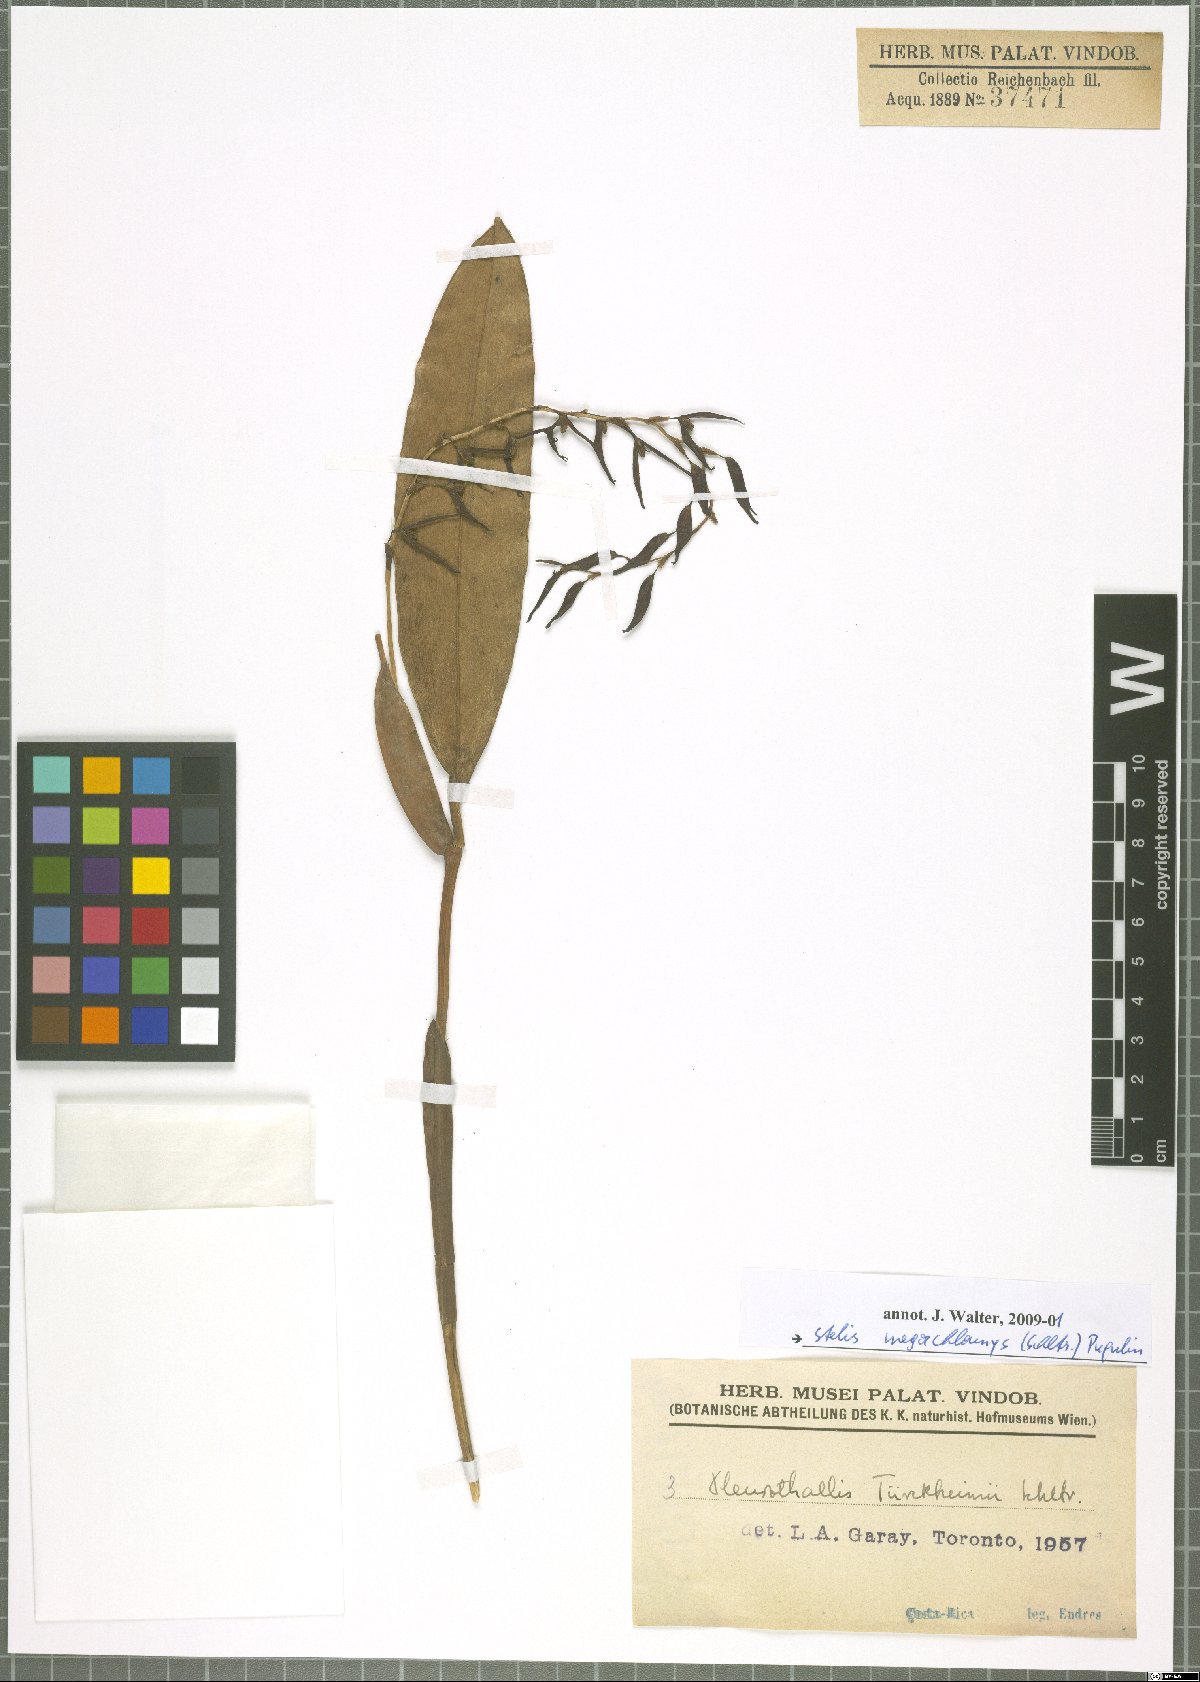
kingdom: Plantae
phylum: Tracheophyta
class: Liliopsida
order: Asparagales
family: Orchidaceae
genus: Stelis
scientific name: Stelis megachlamys
